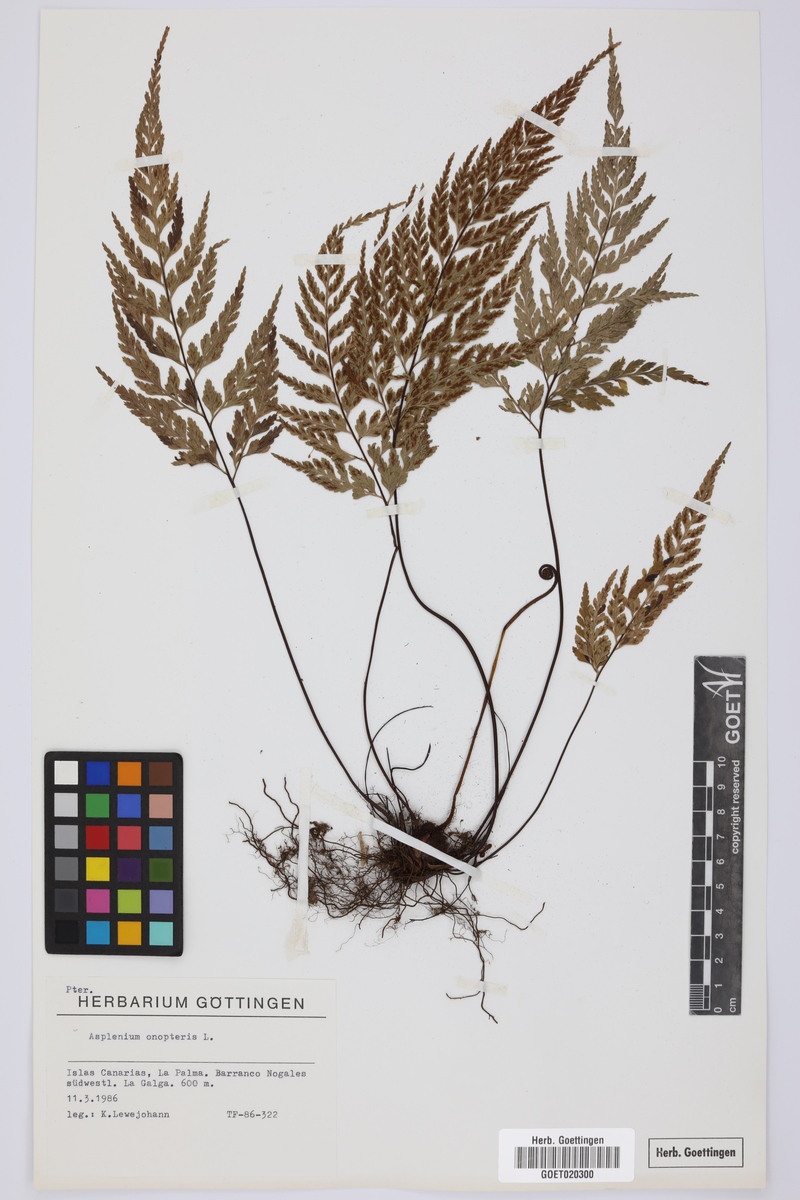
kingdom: Plantae
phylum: Tracheophyta
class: Polypodiopsida
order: Polypodiales
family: Aspleniaceae
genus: Asplenium
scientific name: Asplenium onopteris
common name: Irish spleenwort
